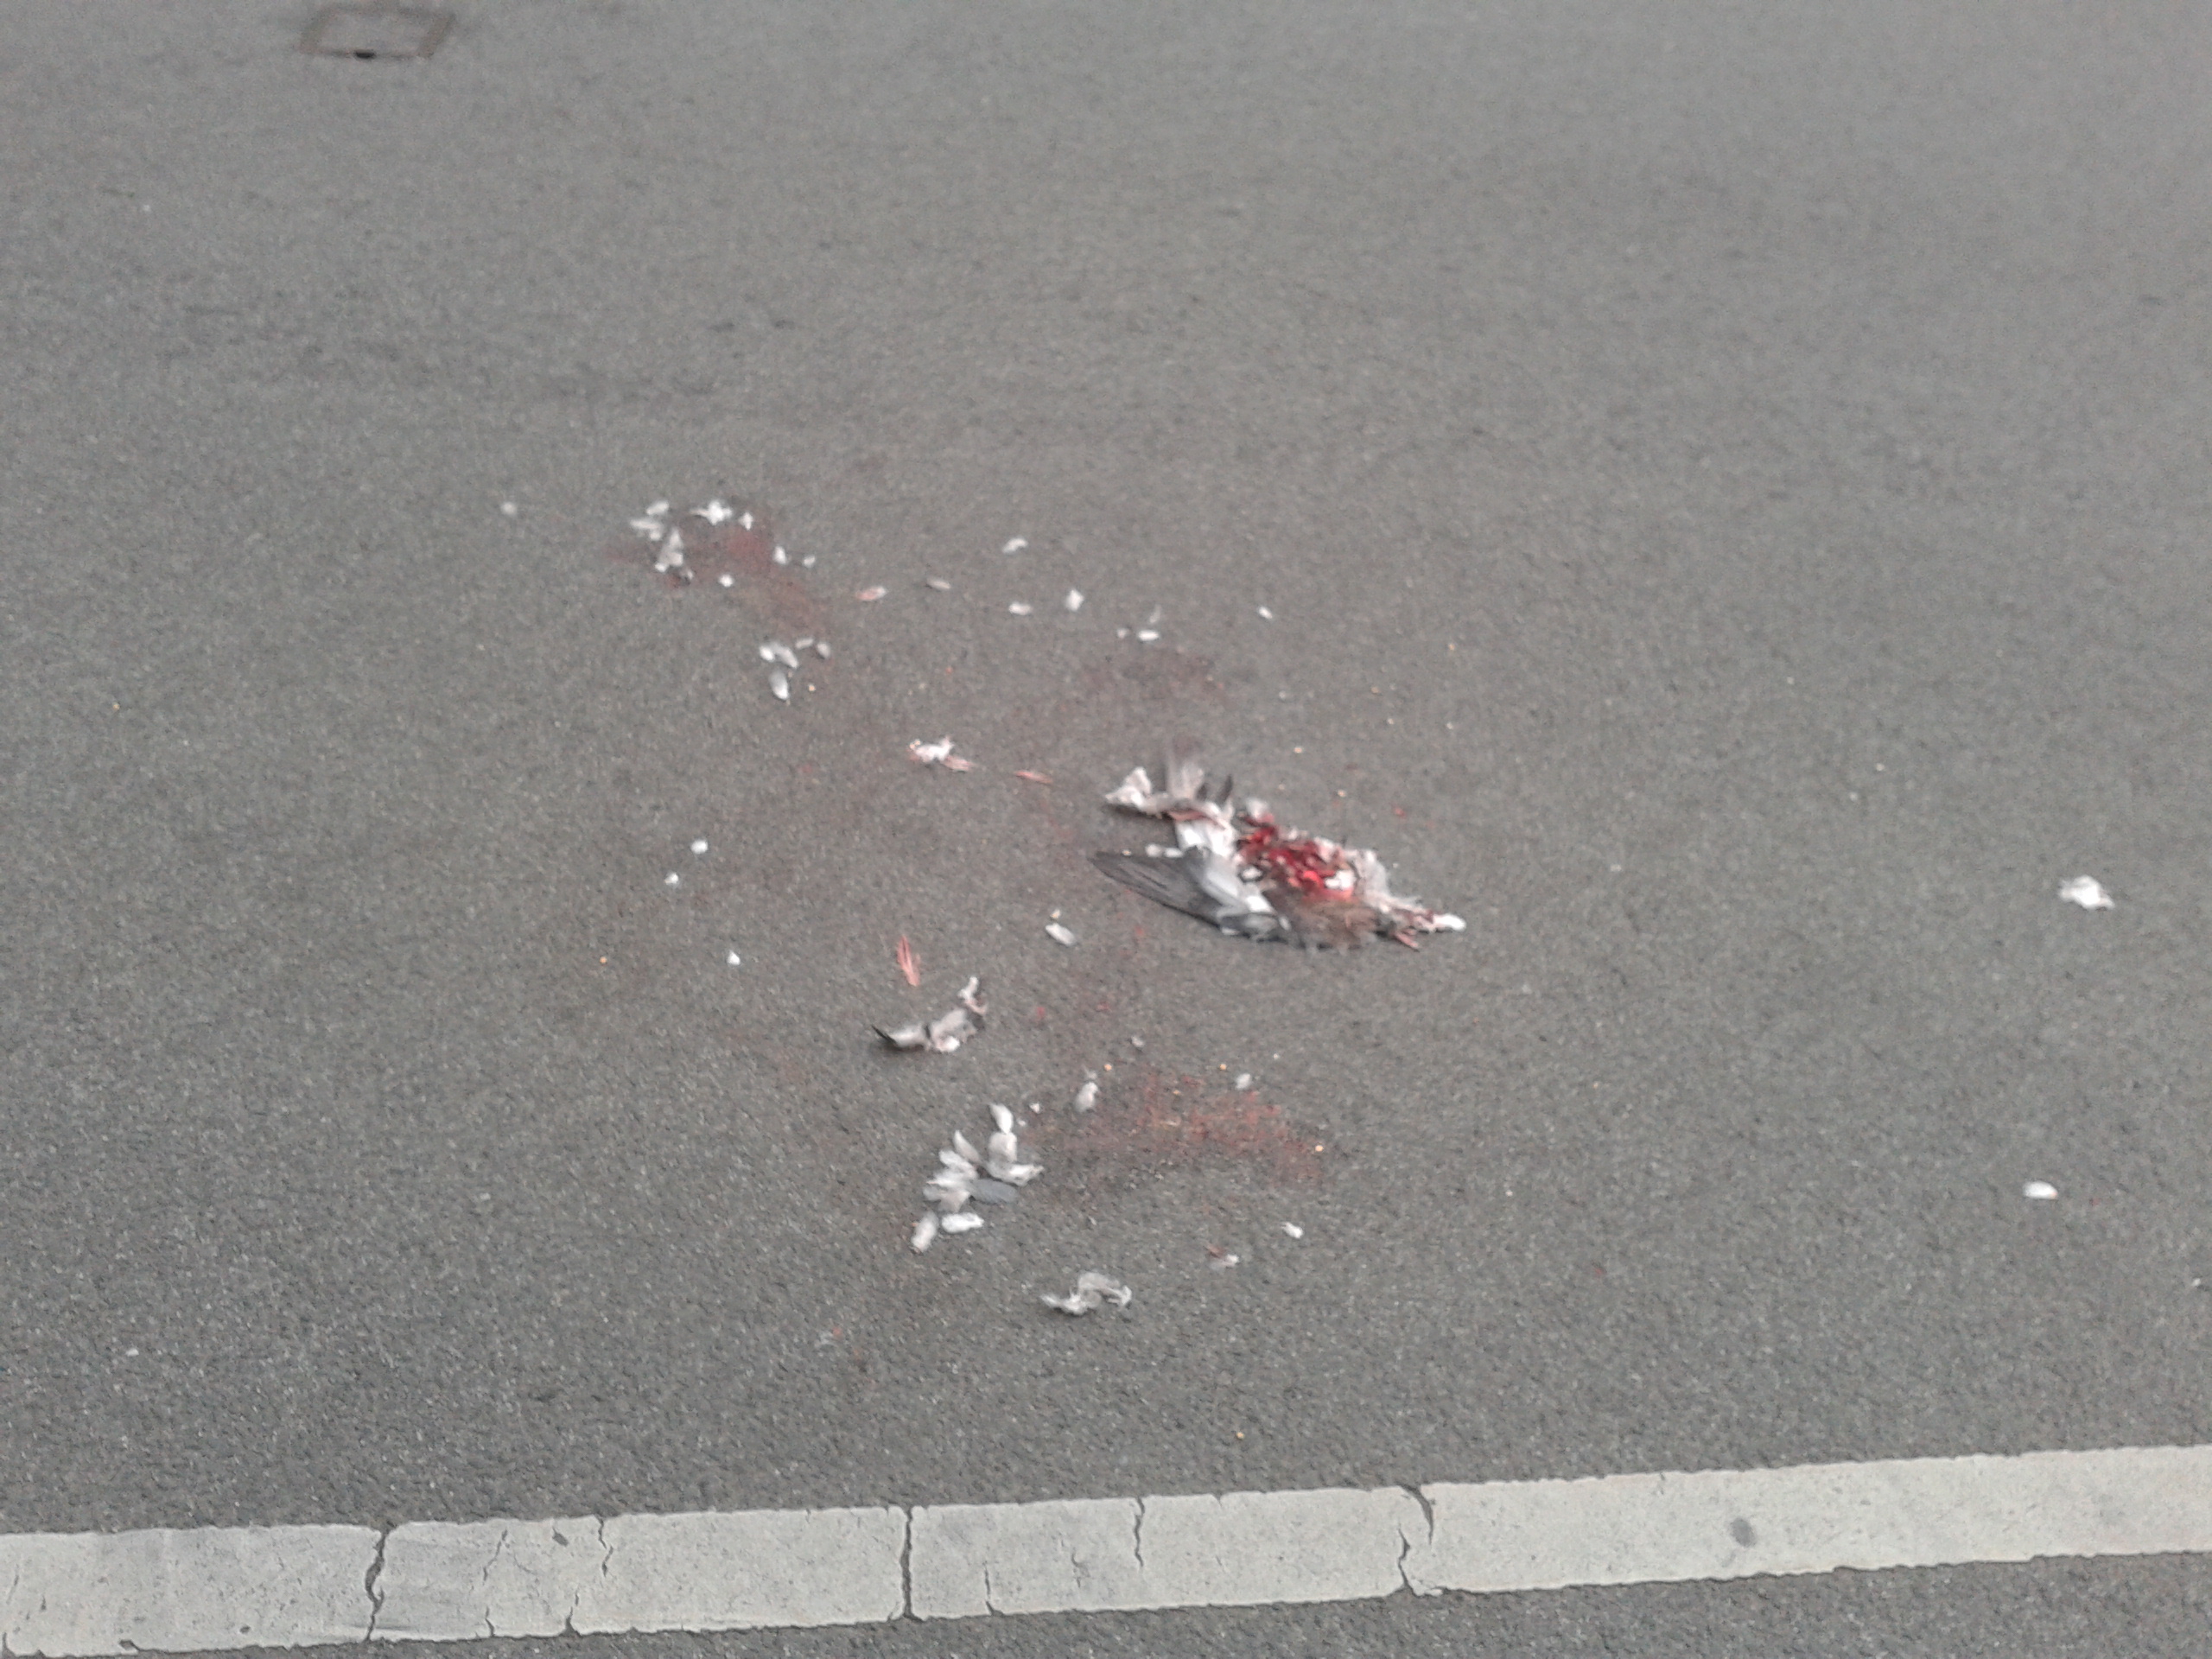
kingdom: Animalia
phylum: Chordata
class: Aves
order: Columbiformes
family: Columbidae
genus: Columba
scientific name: Columba livia
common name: Rock pigeon
